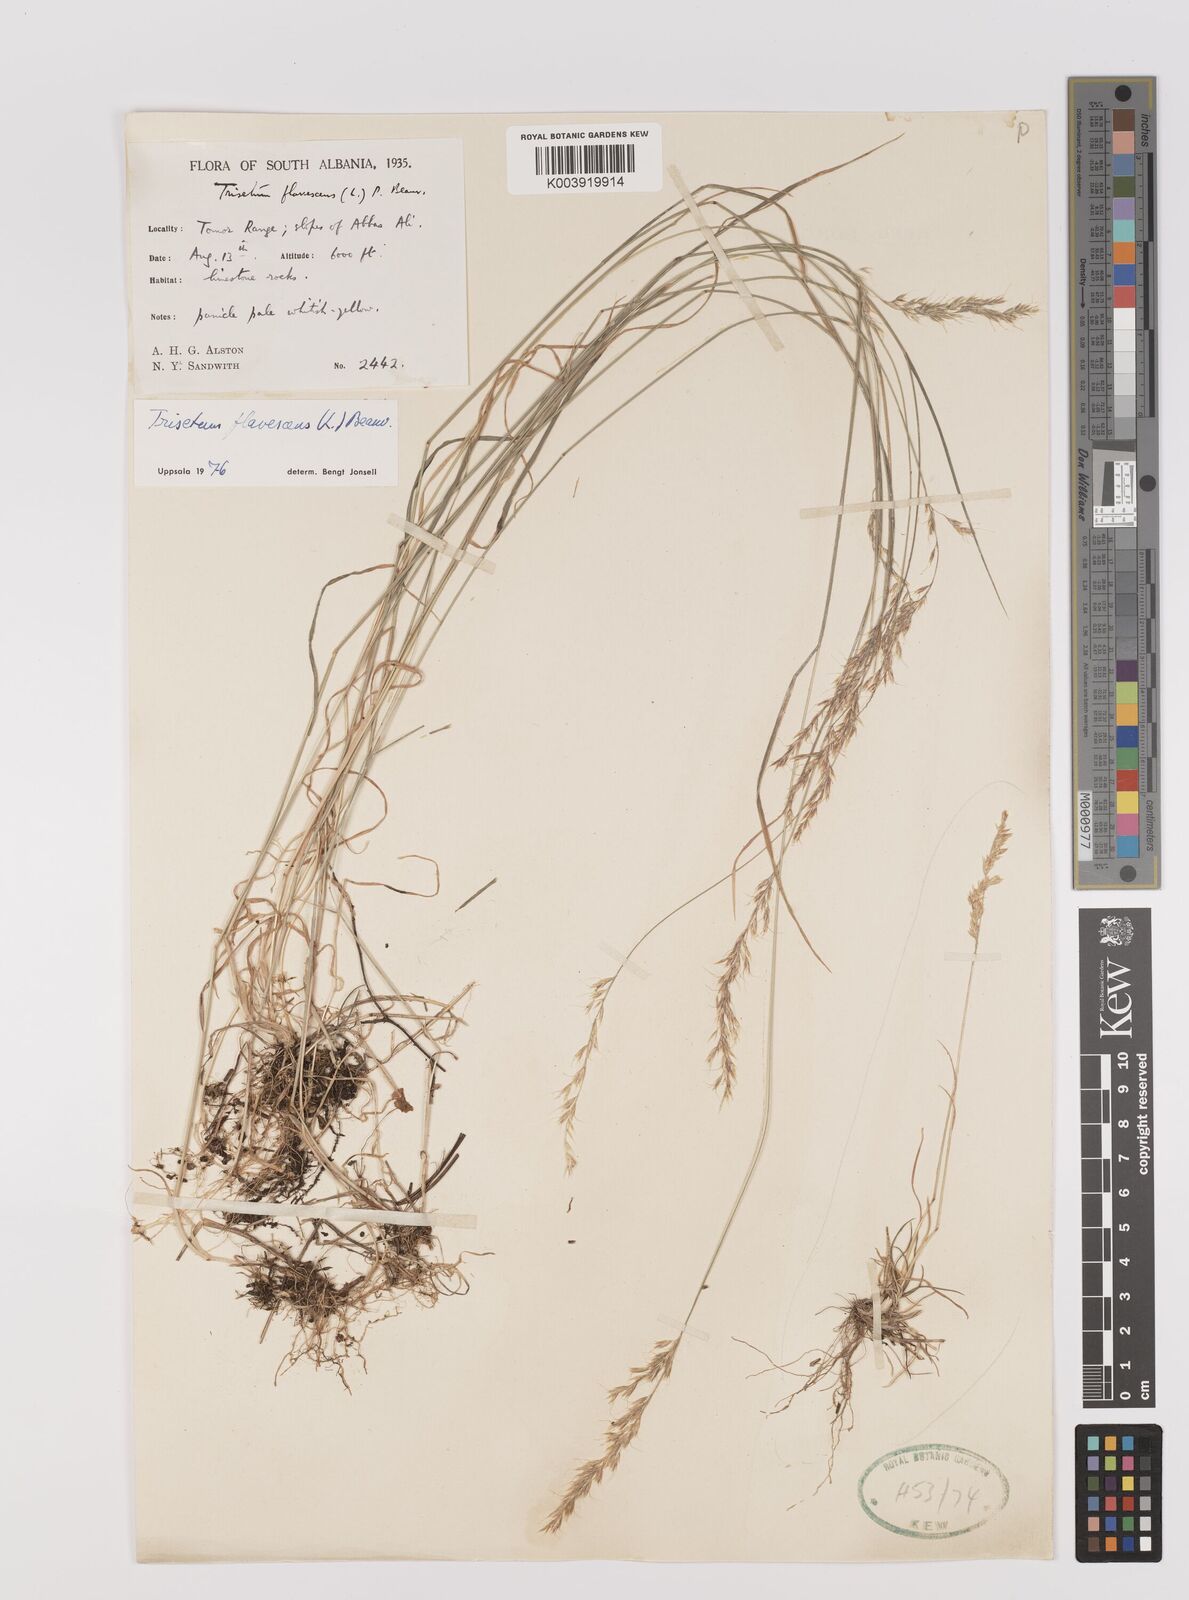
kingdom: Plantae
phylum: Tracheophyta
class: Liliopsida
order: Poales
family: Poaceae
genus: Trisetum
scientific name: Trisetum flavescens
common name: Yellow oat-grass
